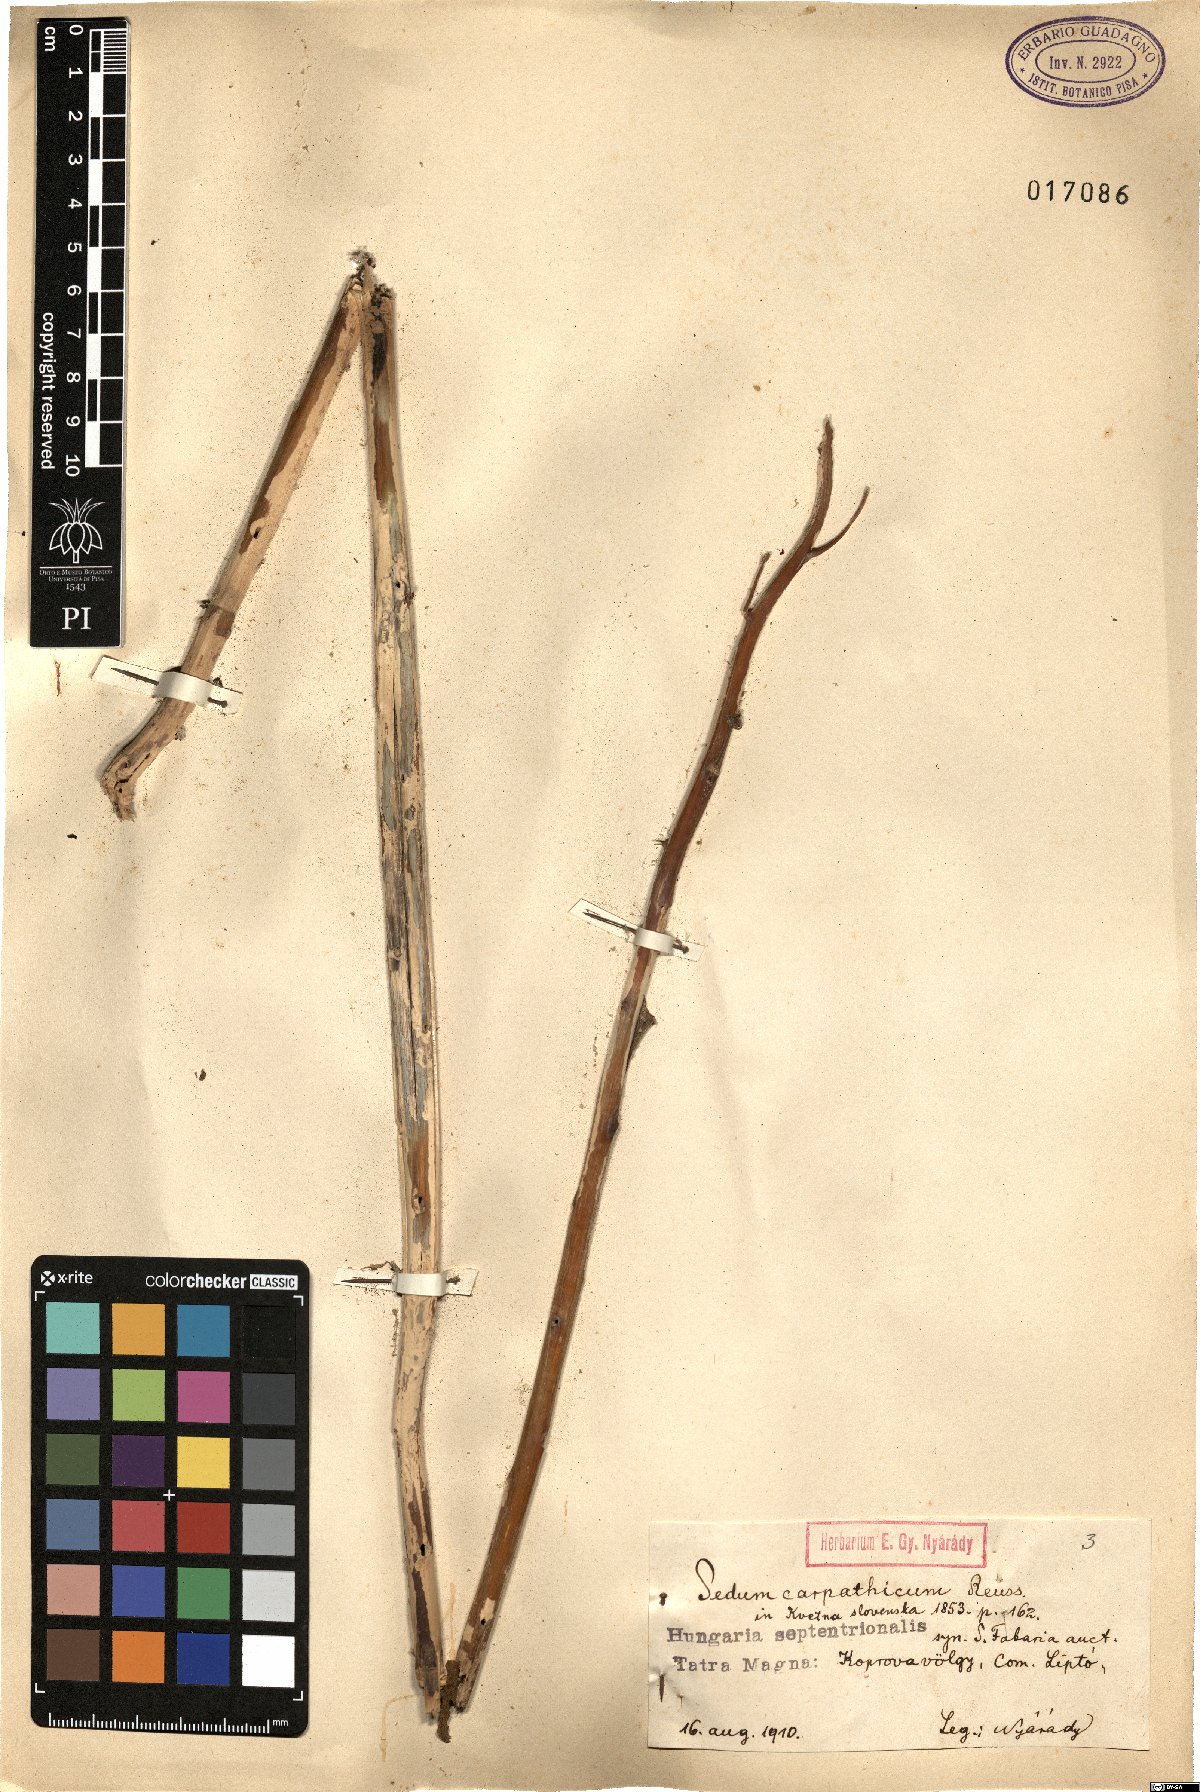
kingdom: Plantae
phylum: Tracheophyta
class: Magnoliopsida
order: Saxifragales
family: Crassulaceae
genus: Hylotelephium
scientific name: Hylotelephium telephium
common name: Live-forever
